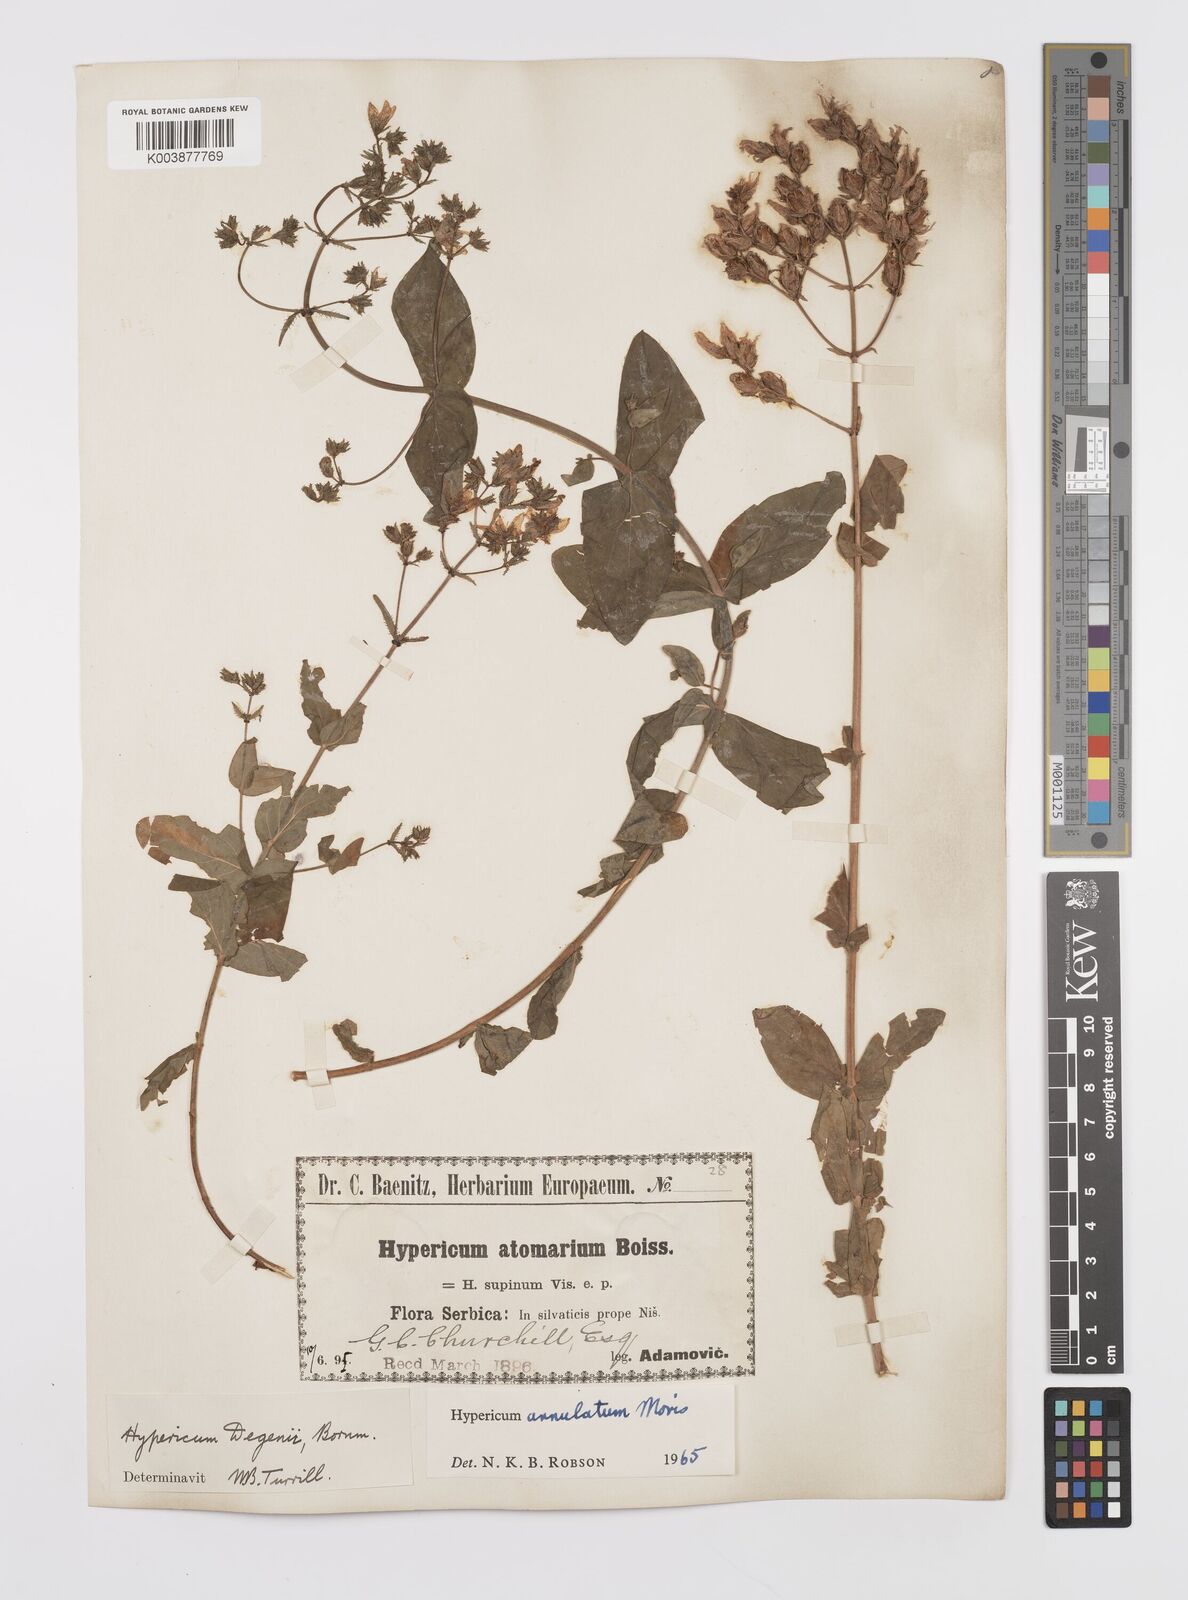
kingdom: Plantae
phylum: Tracheophyta
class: Magnoliopsida
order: Malpighiales
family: Hypericaceae
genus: Hypericum
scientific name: Hypericum annulatum
